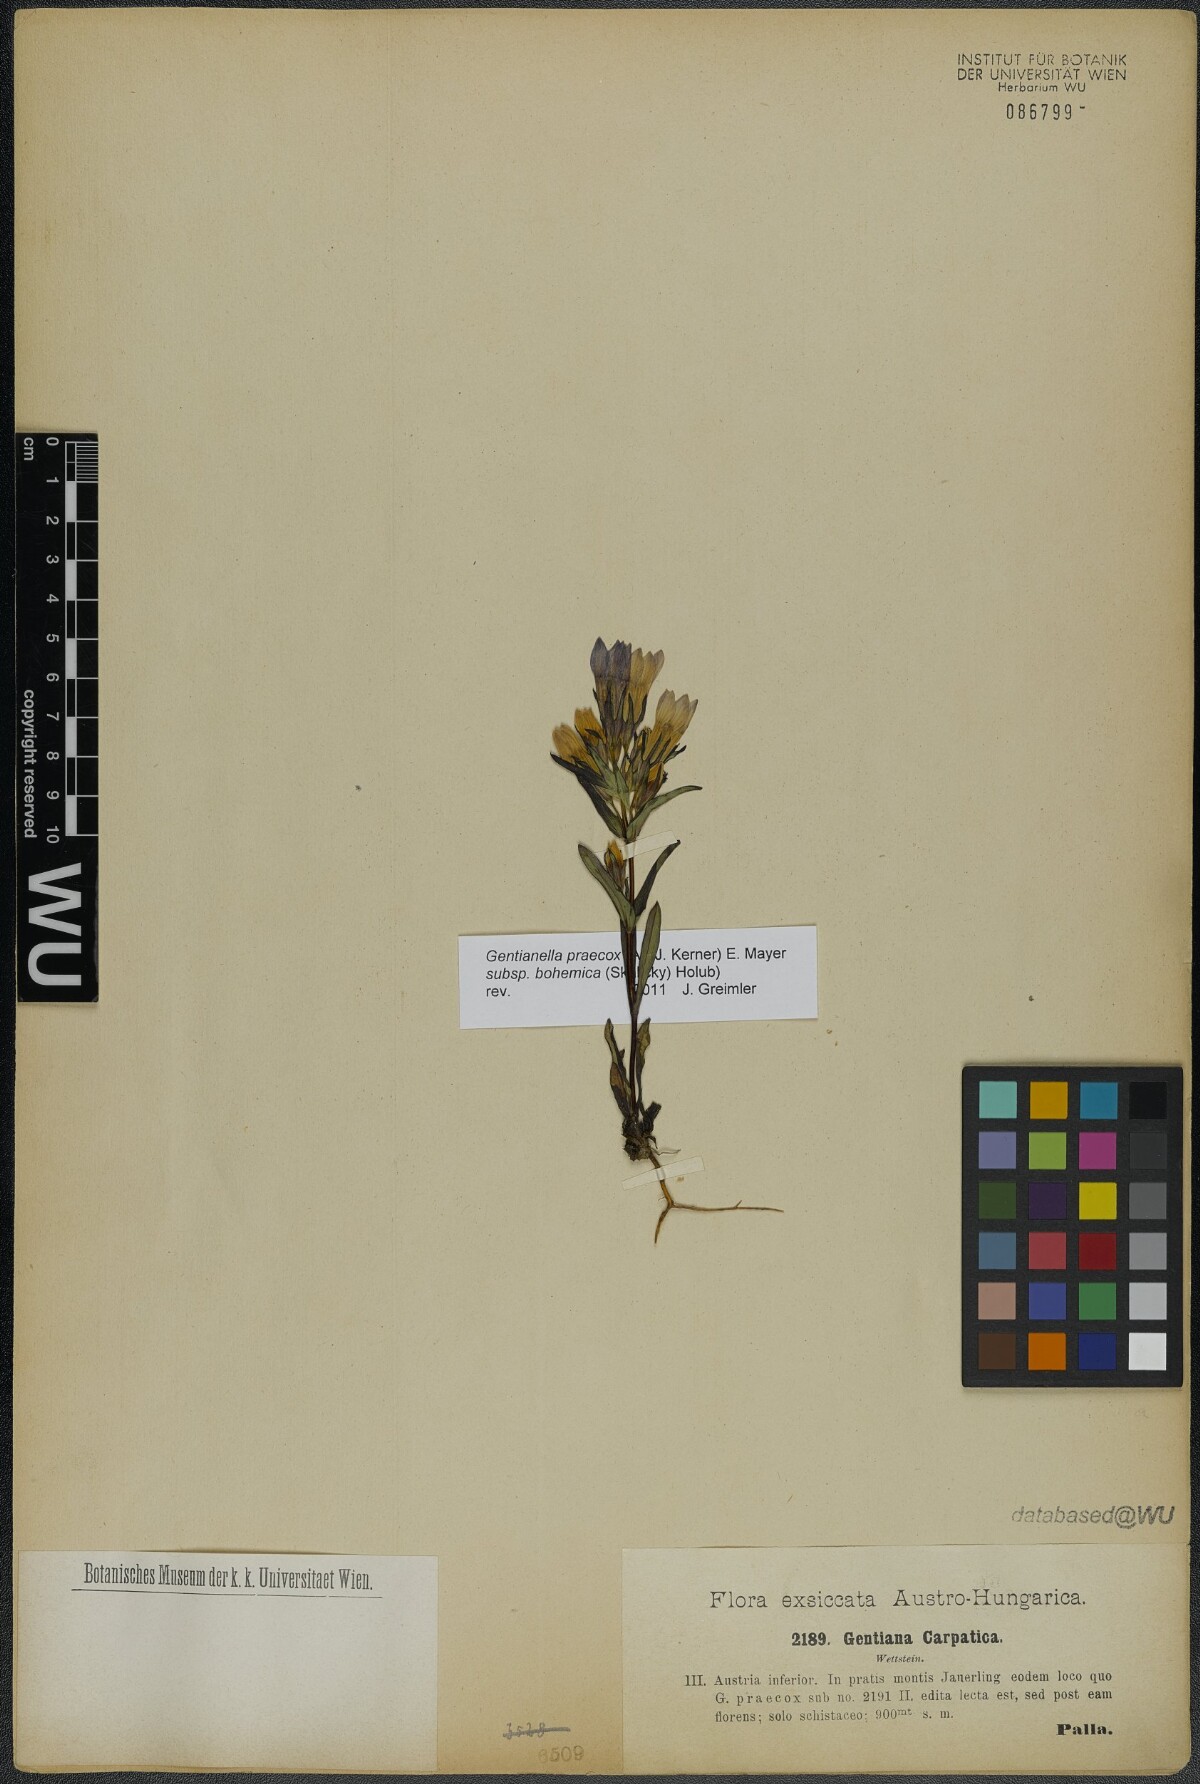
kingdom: Plantae
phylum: Tracheophyta
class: Magnoliopsida
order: Gentianales
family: Gentianaceae
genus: Gentianella
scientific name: Gentianella praecox
